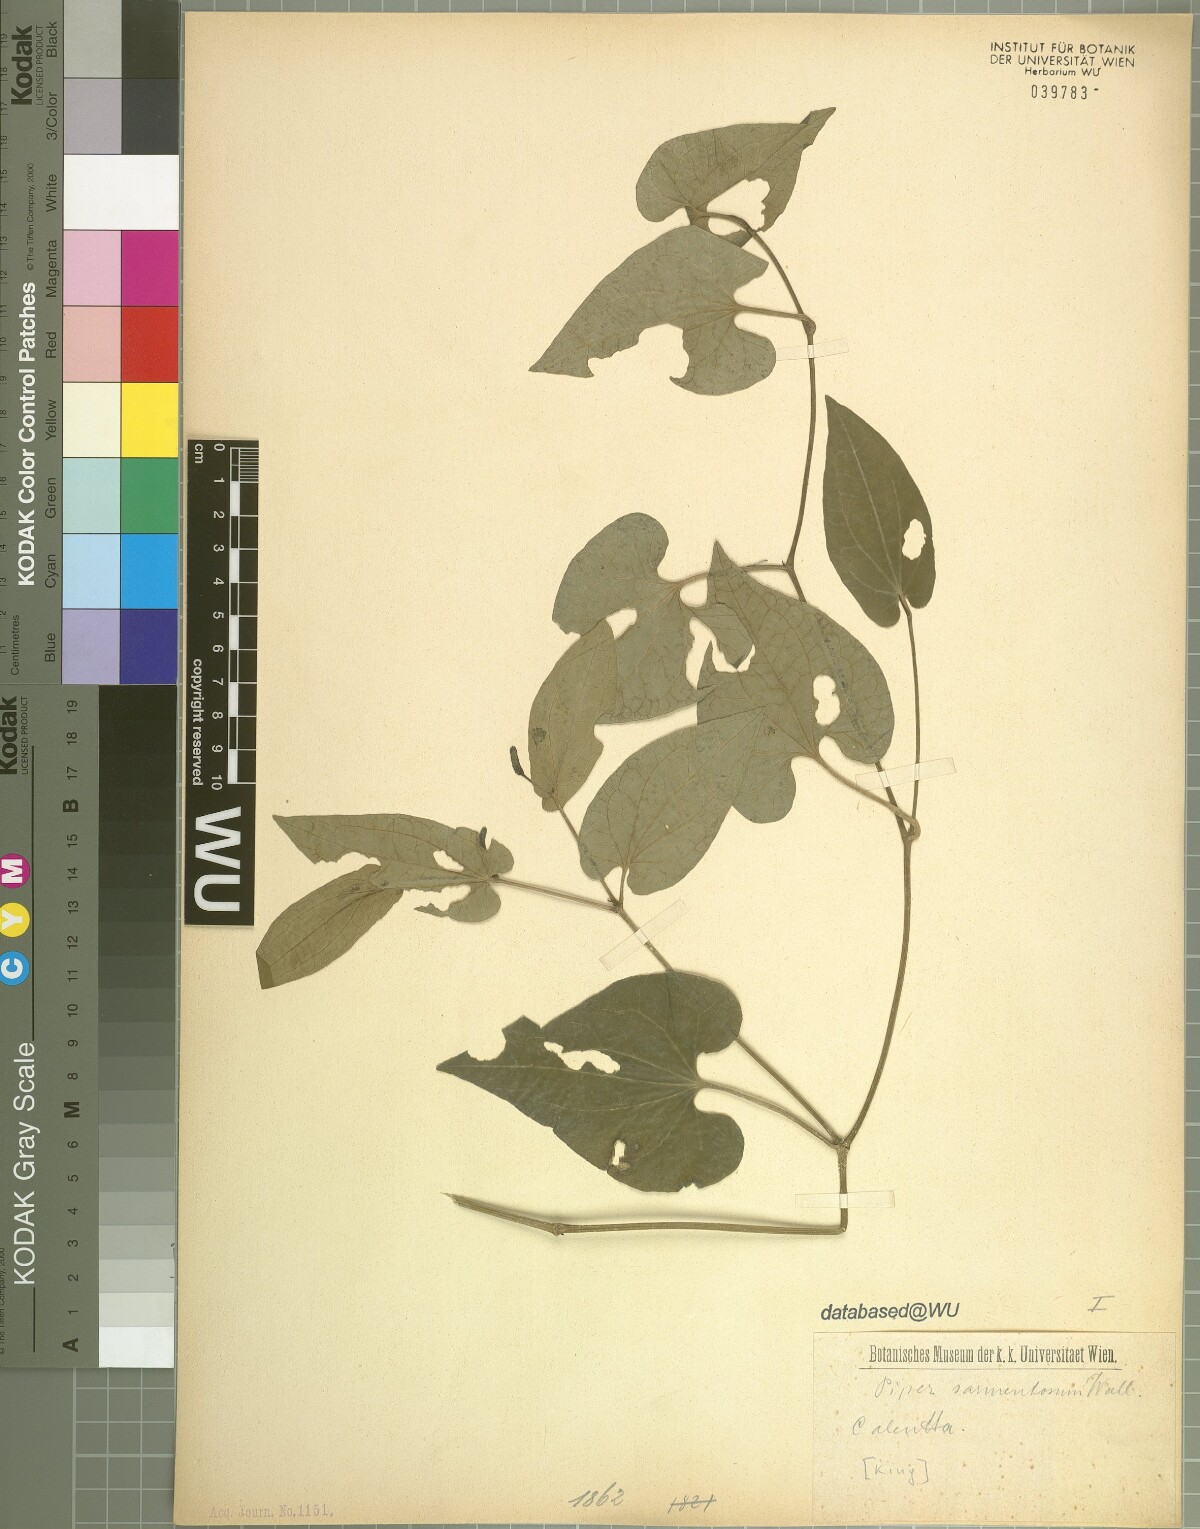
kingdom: Plantae
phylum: Tracheophyta
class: Magnoliopsida
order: Piperales
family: Piperaceae
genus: Piper
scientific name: Piper longum
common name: Long pepper
